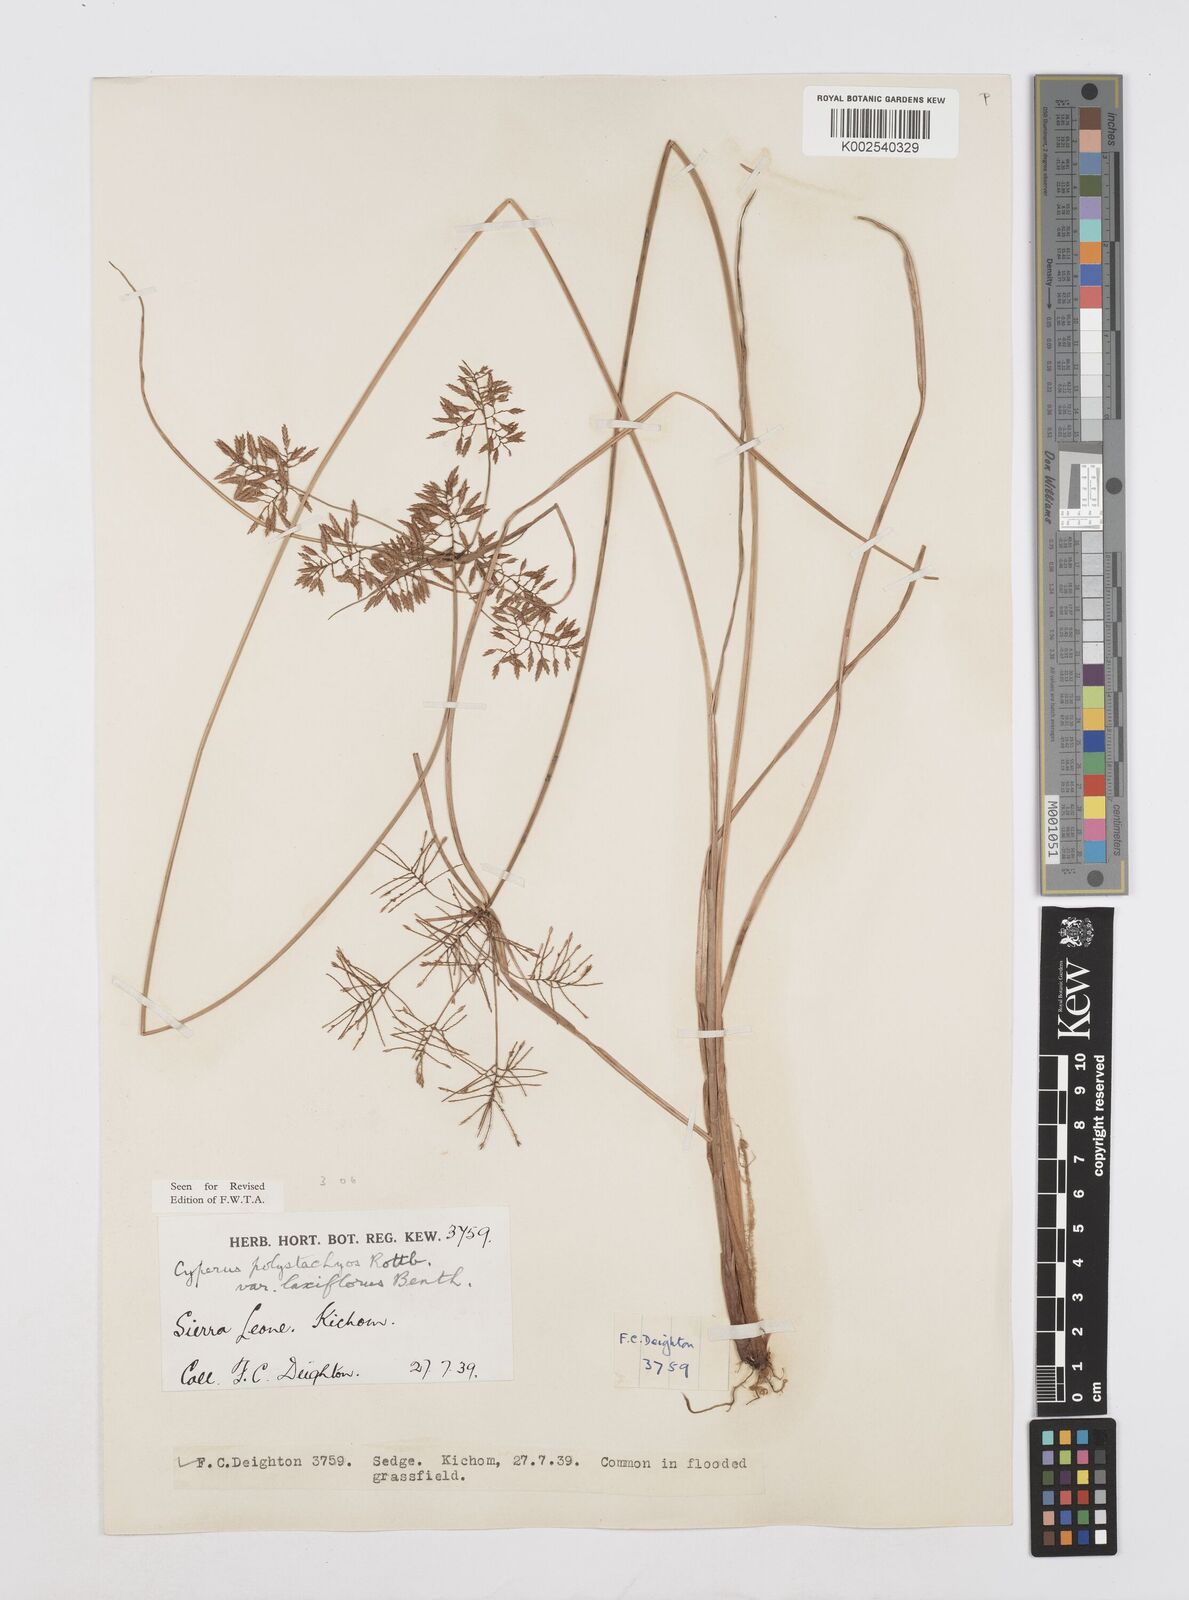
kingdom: Plantae
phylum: Tracheophyta
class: Liliopsida
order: Poales
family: Cyperaceae
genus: Cyperus
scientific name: Cyperus polystachyos
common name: Bunchy flat sedge
